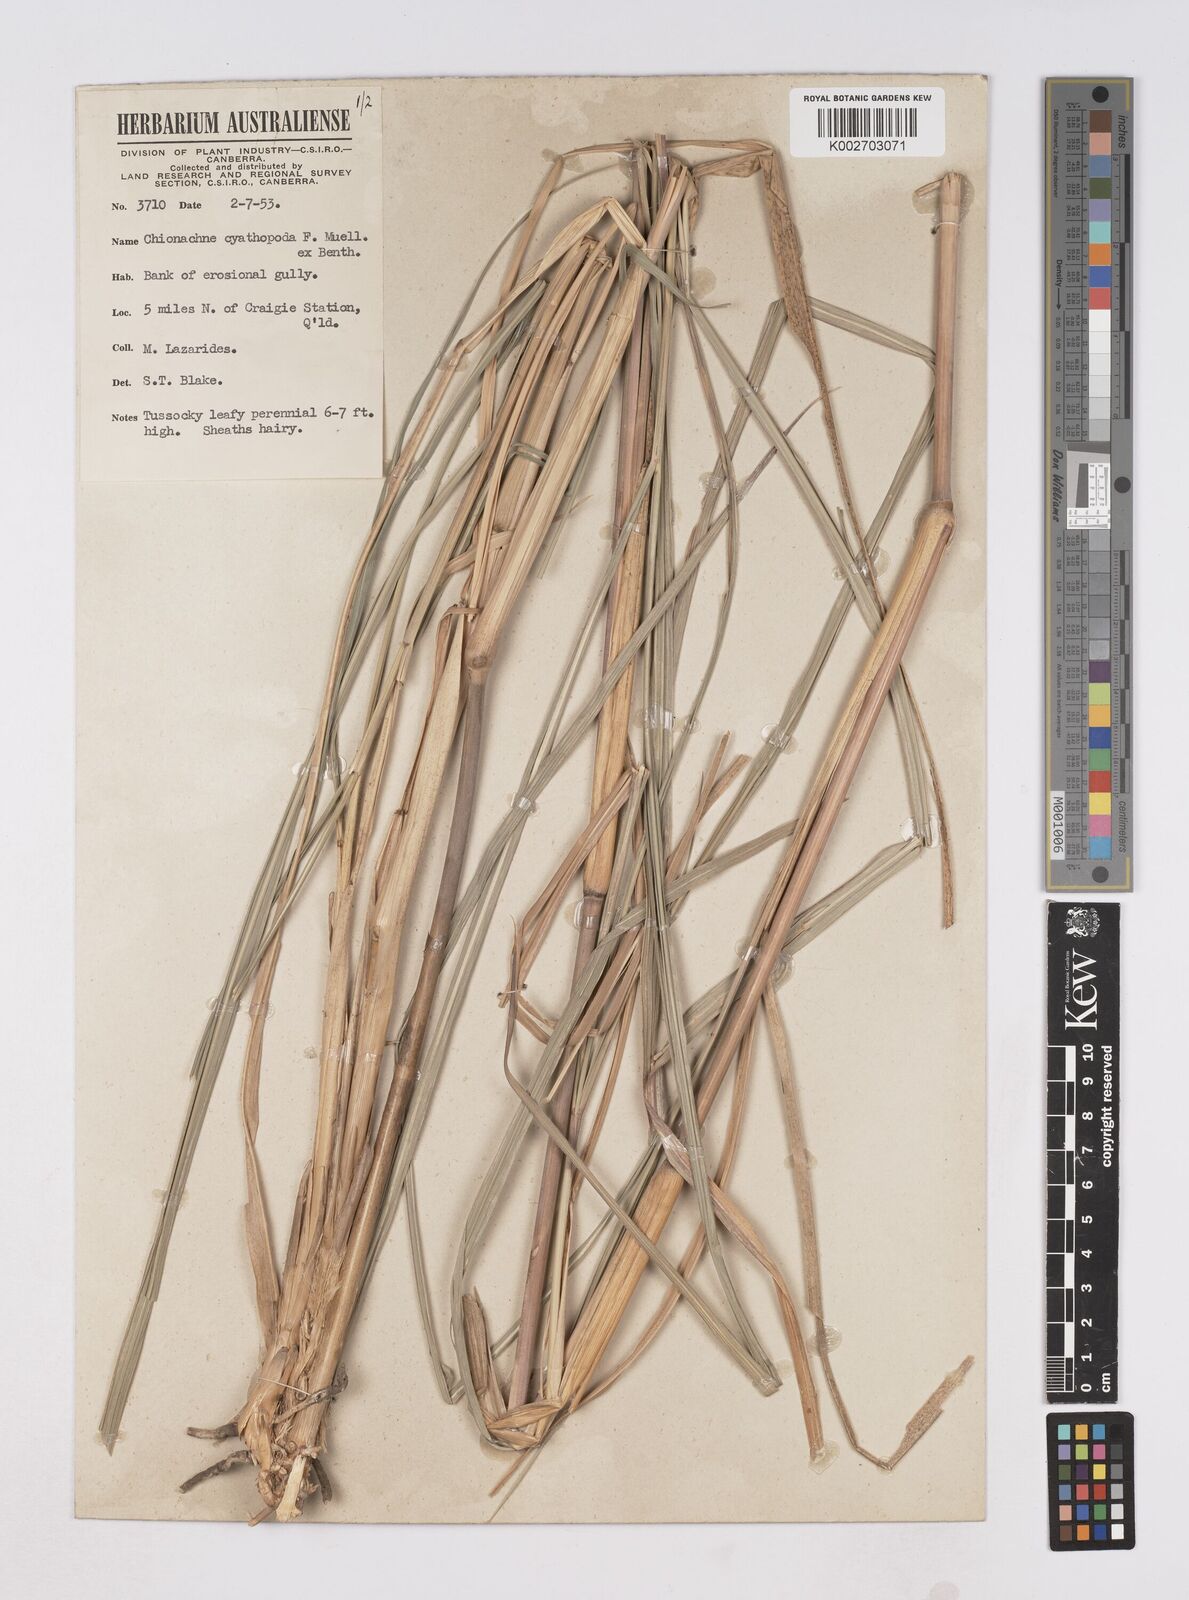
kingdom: Plantae
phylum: Tracheophyta
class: Liliopsida
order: Poales
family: Poaceae
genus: Polytoca
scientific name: Polytoca cyathopoda
